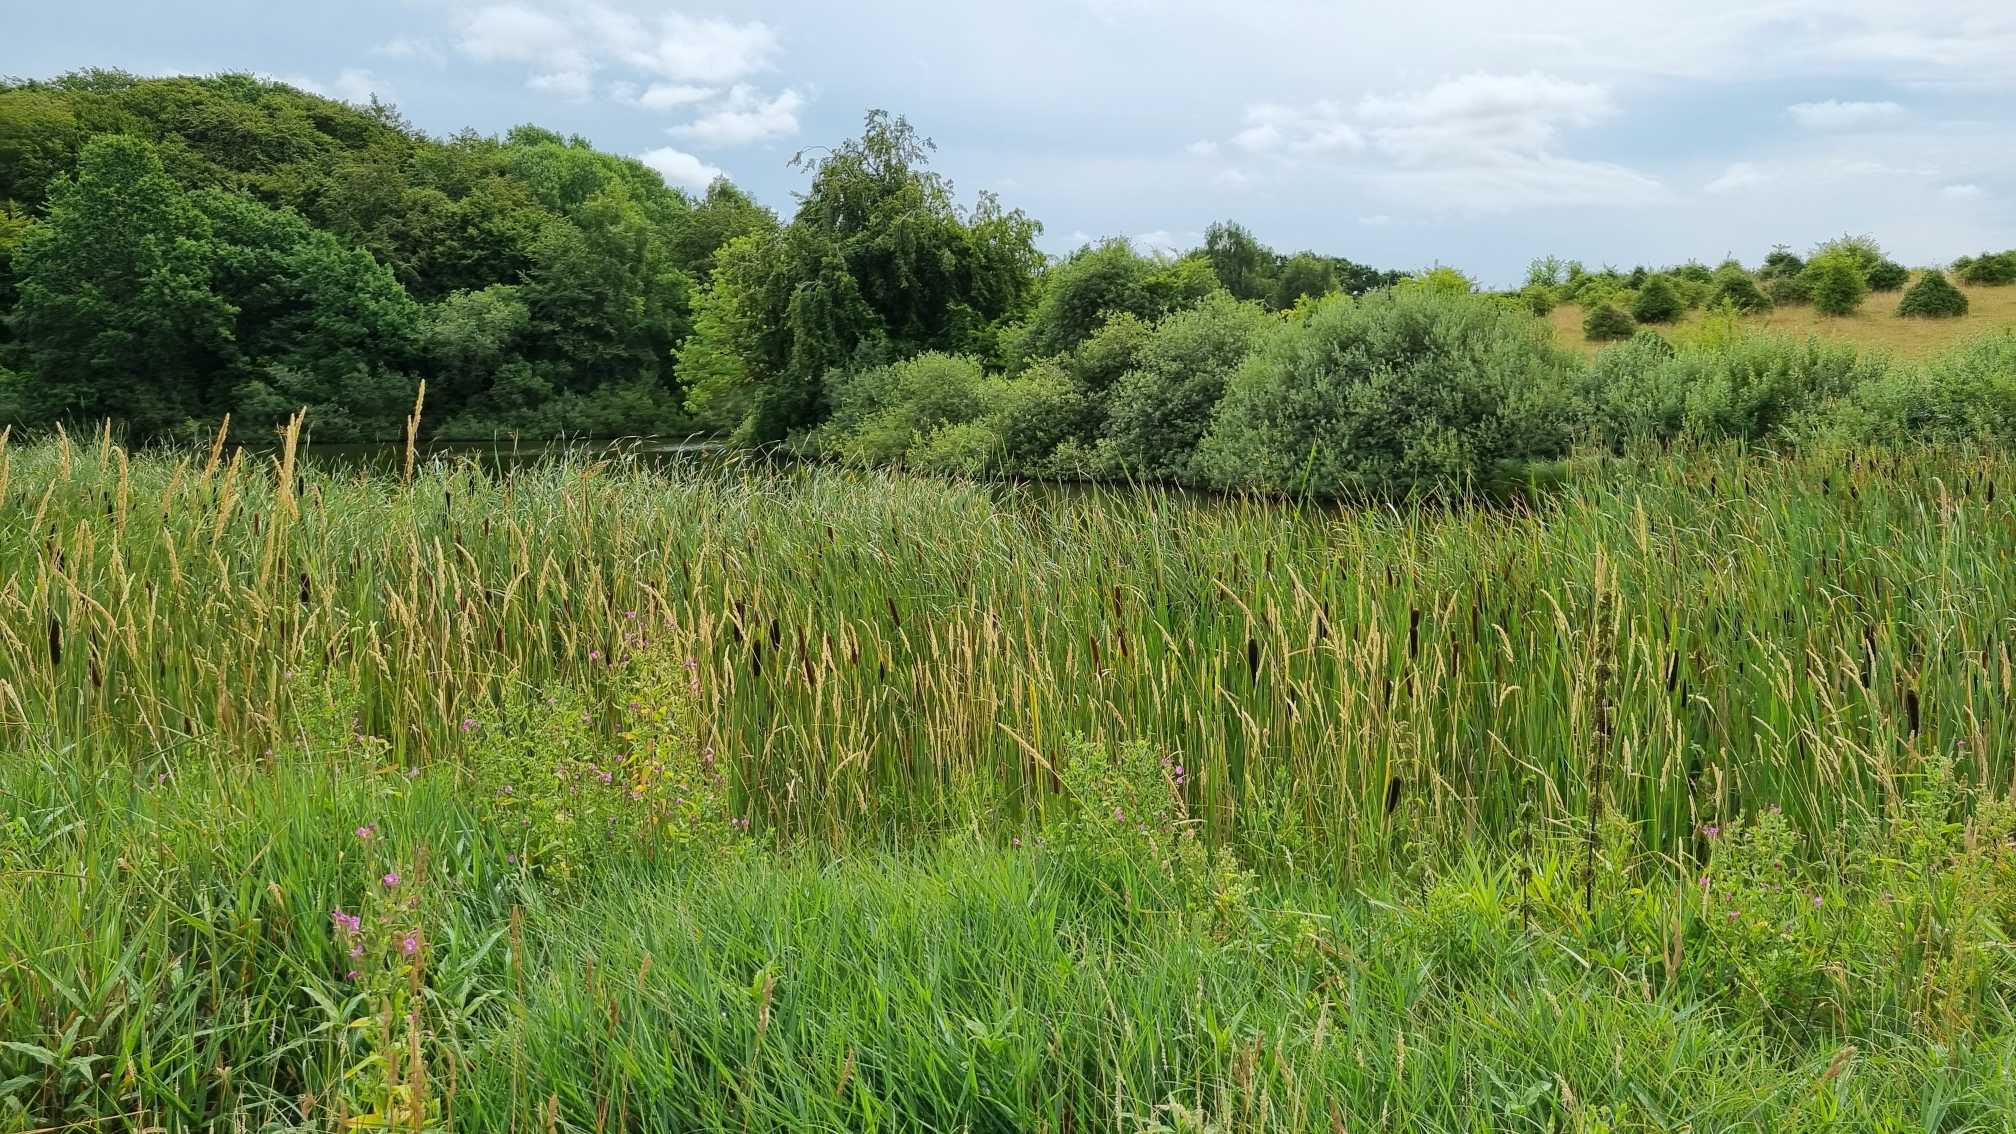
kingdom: Plantae
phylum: Tracheophyta
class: Liliopsida
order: Poales
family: Typhaceae
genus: Typha
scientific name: Typha angustifolia
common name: Smalbladet dunhammer
